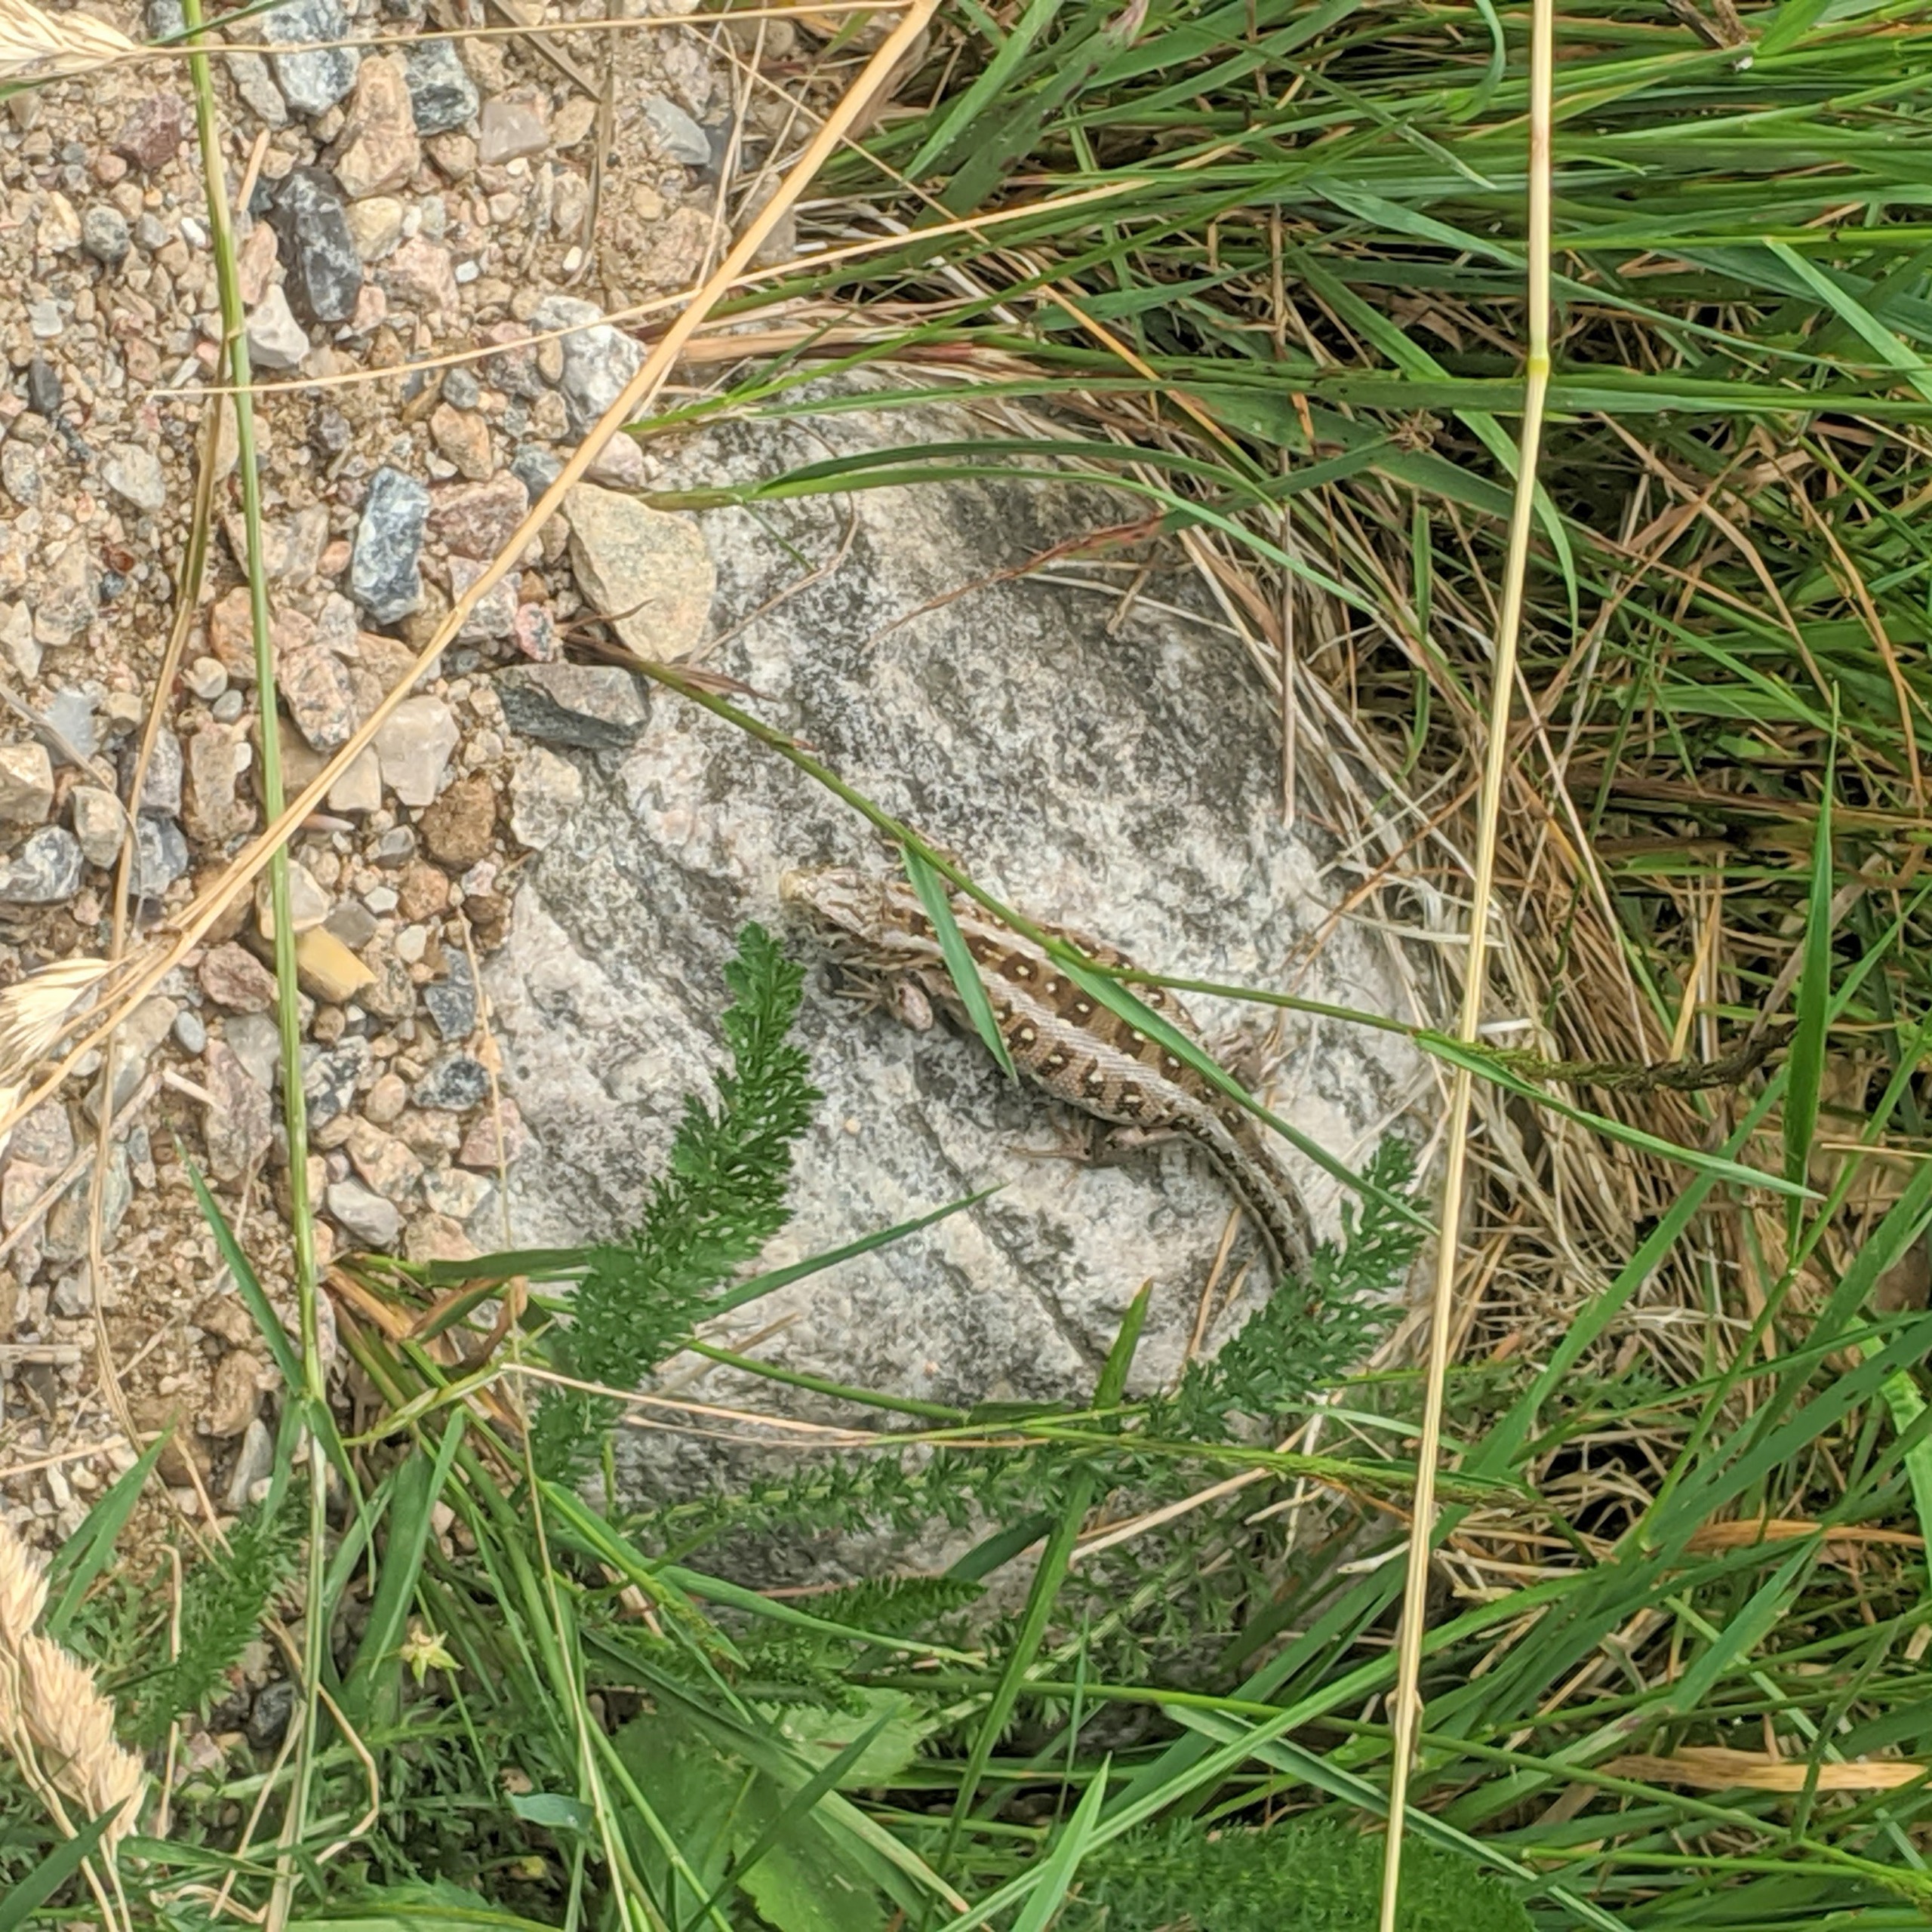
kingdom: Animalia
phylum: Chordata
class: Squamata
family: Lacertidae
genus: Lacerta
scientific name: Lacerta agilis
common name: Markfirben
